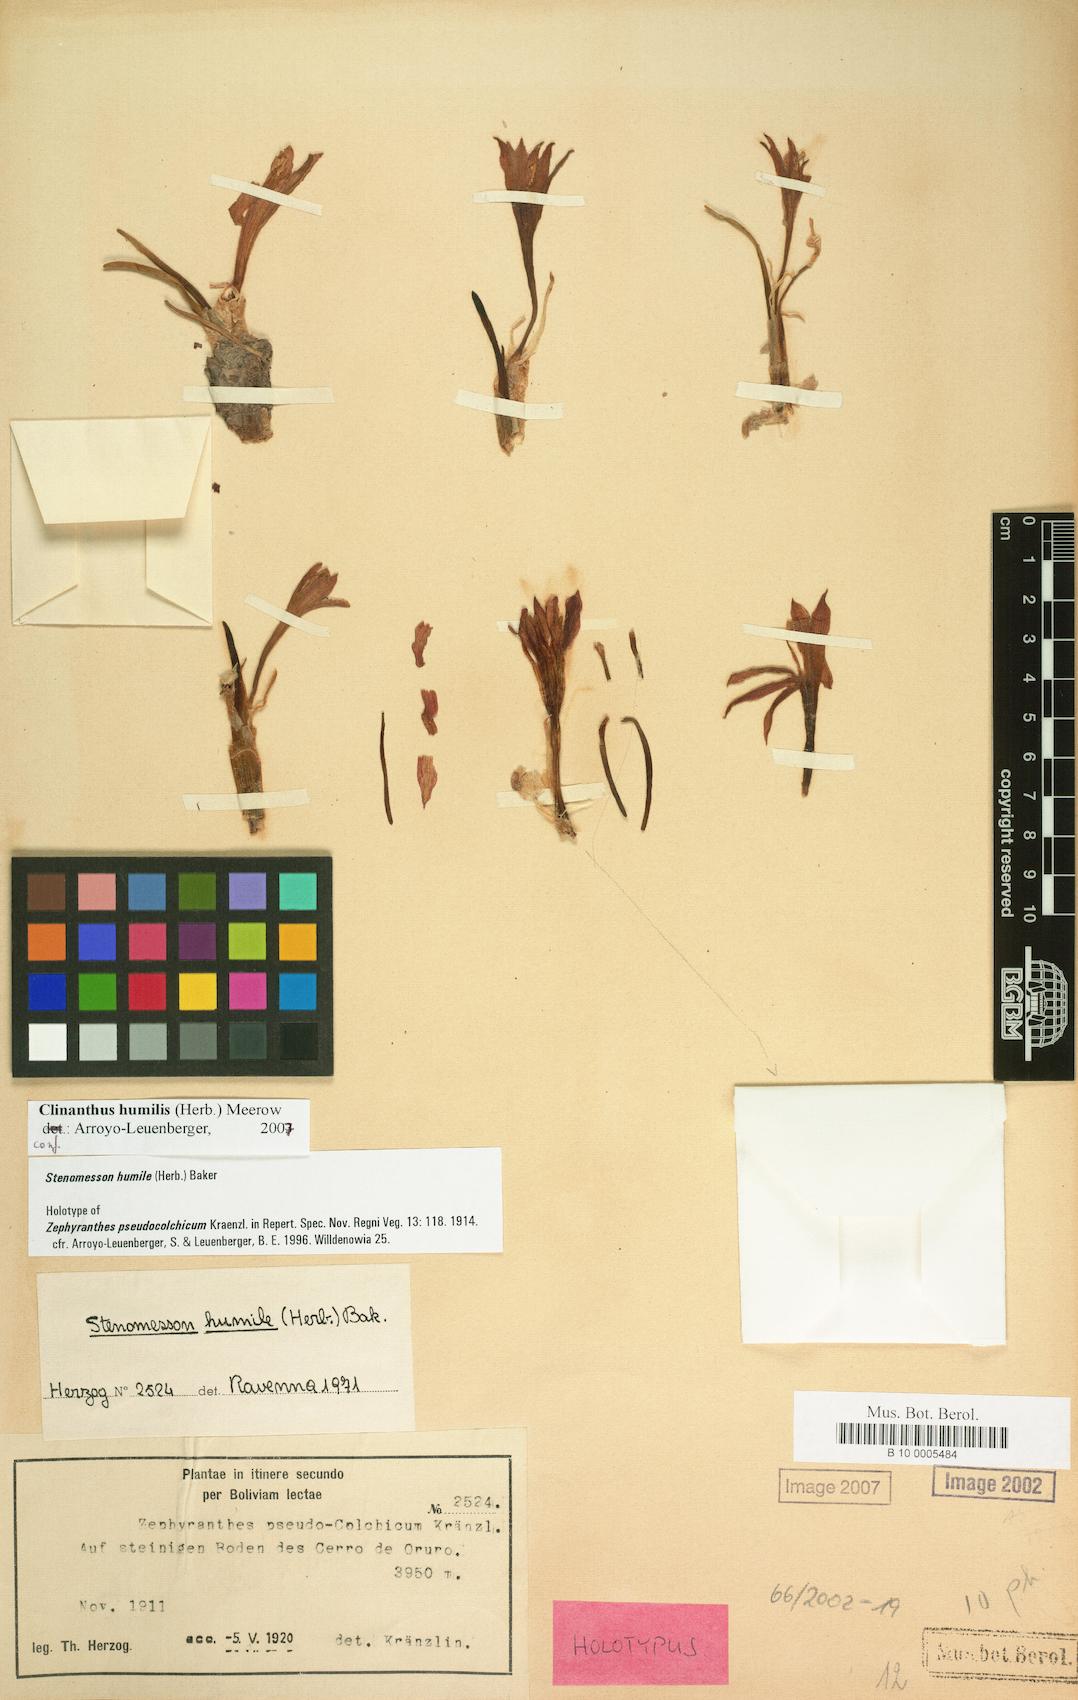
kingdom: Plantae
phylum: Tracheophyta
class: Liliopsida
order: Asparagales
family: Amaryllidaceae
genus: Clinanthus
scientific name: Clinanthus humilis
